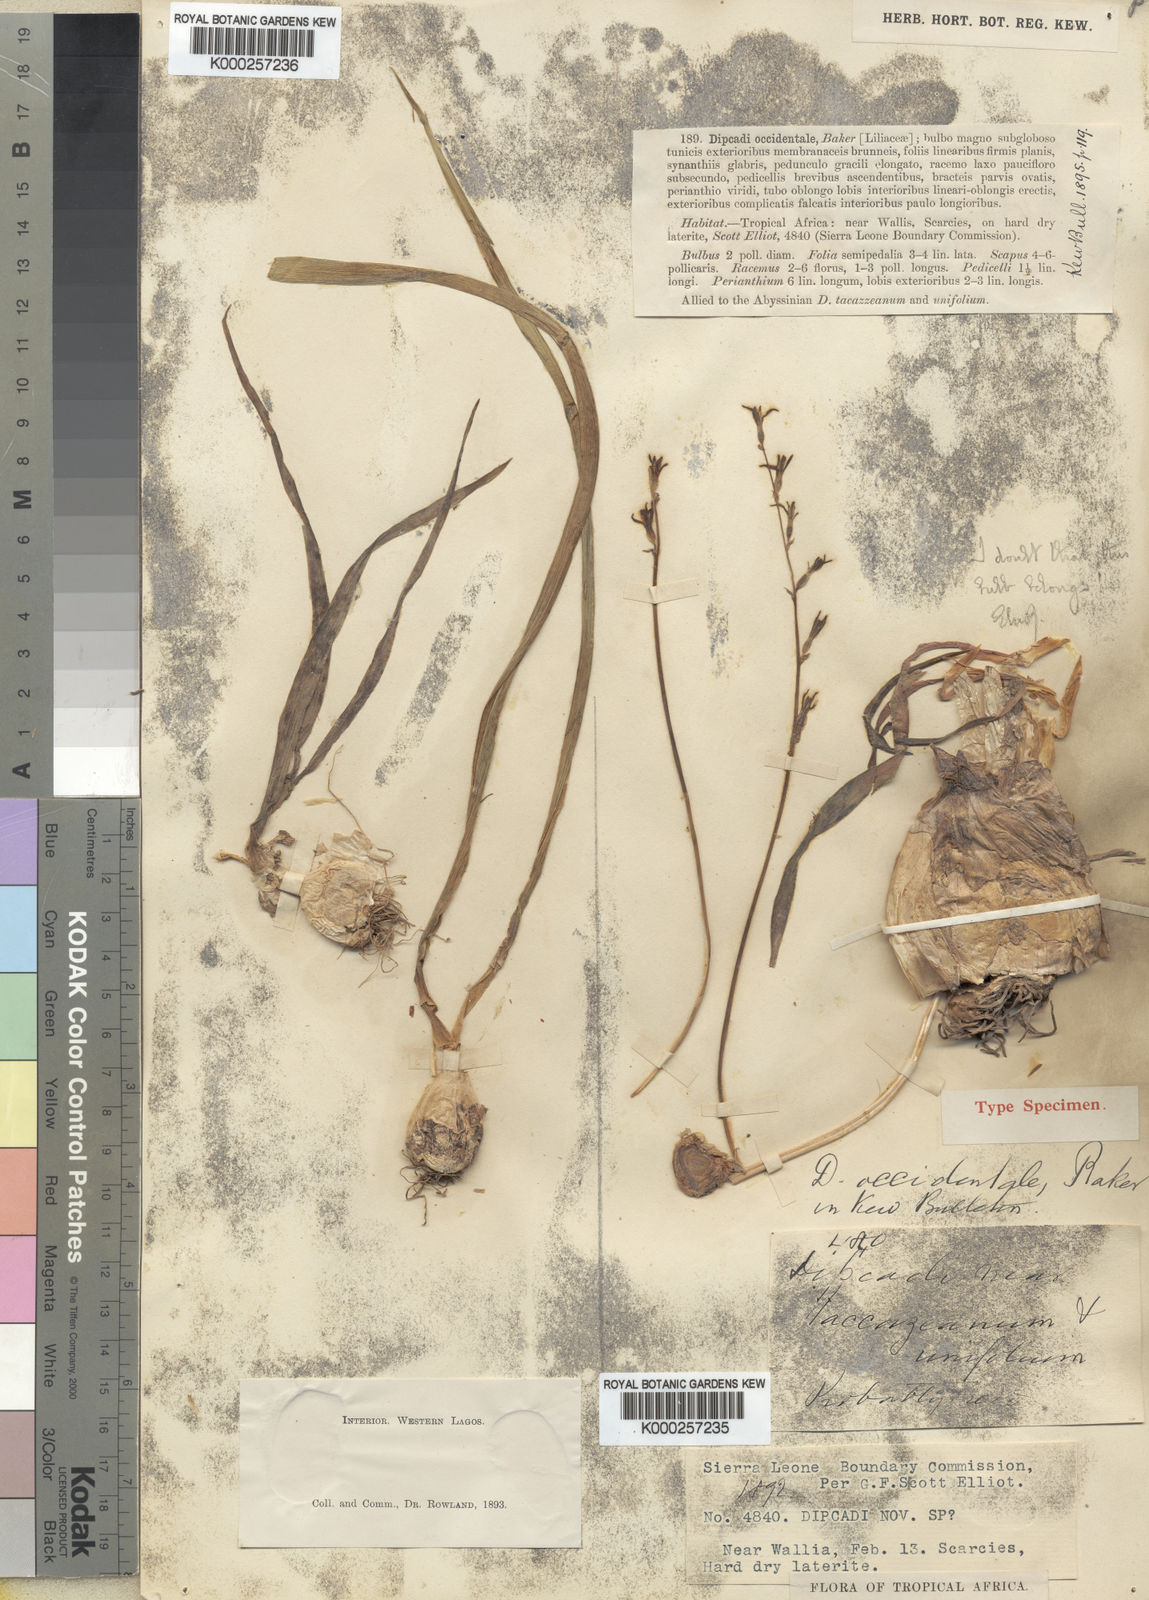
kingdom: Plantae
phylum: Tracheophyta
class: Liliopsida
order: Asparagales
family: Asparagaceae
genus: Dipcadi
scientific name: Dipcadi viride
